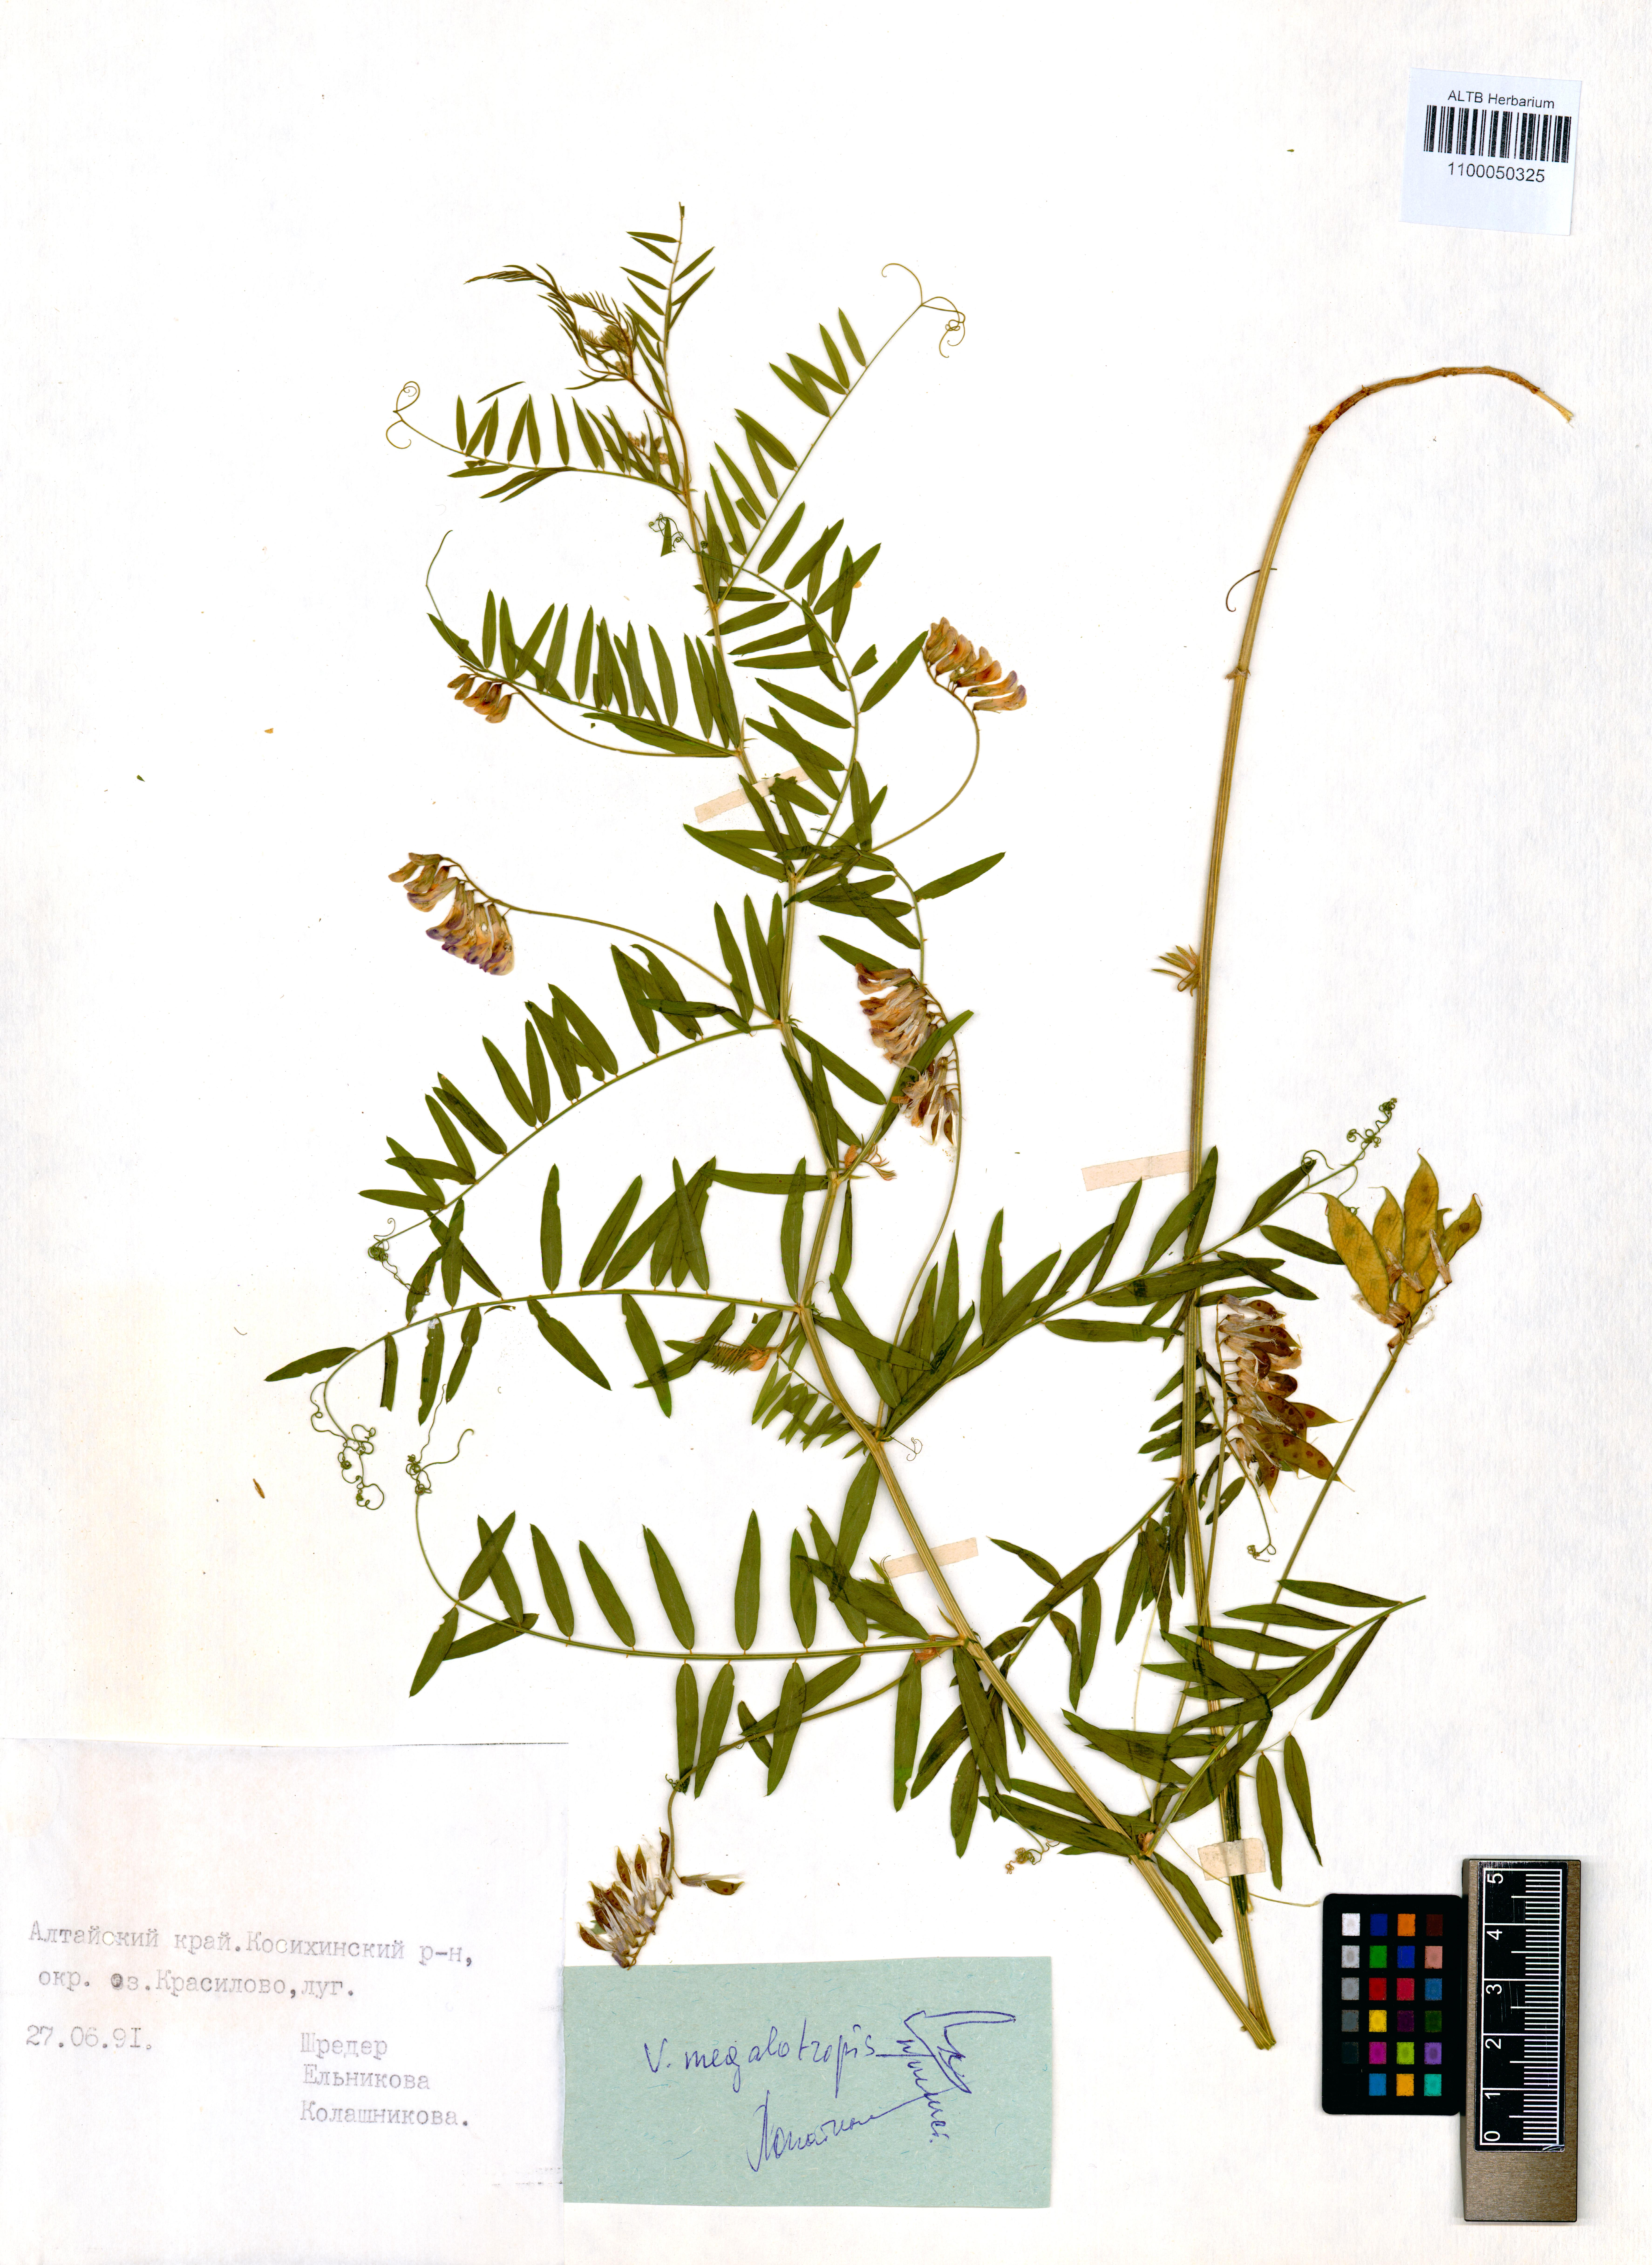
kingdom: Plantae
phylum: Tracheophyta
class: Magnoliopsida
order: Fabales
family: Fabaceae
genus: Vicia
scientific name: Vicia megalotropis
